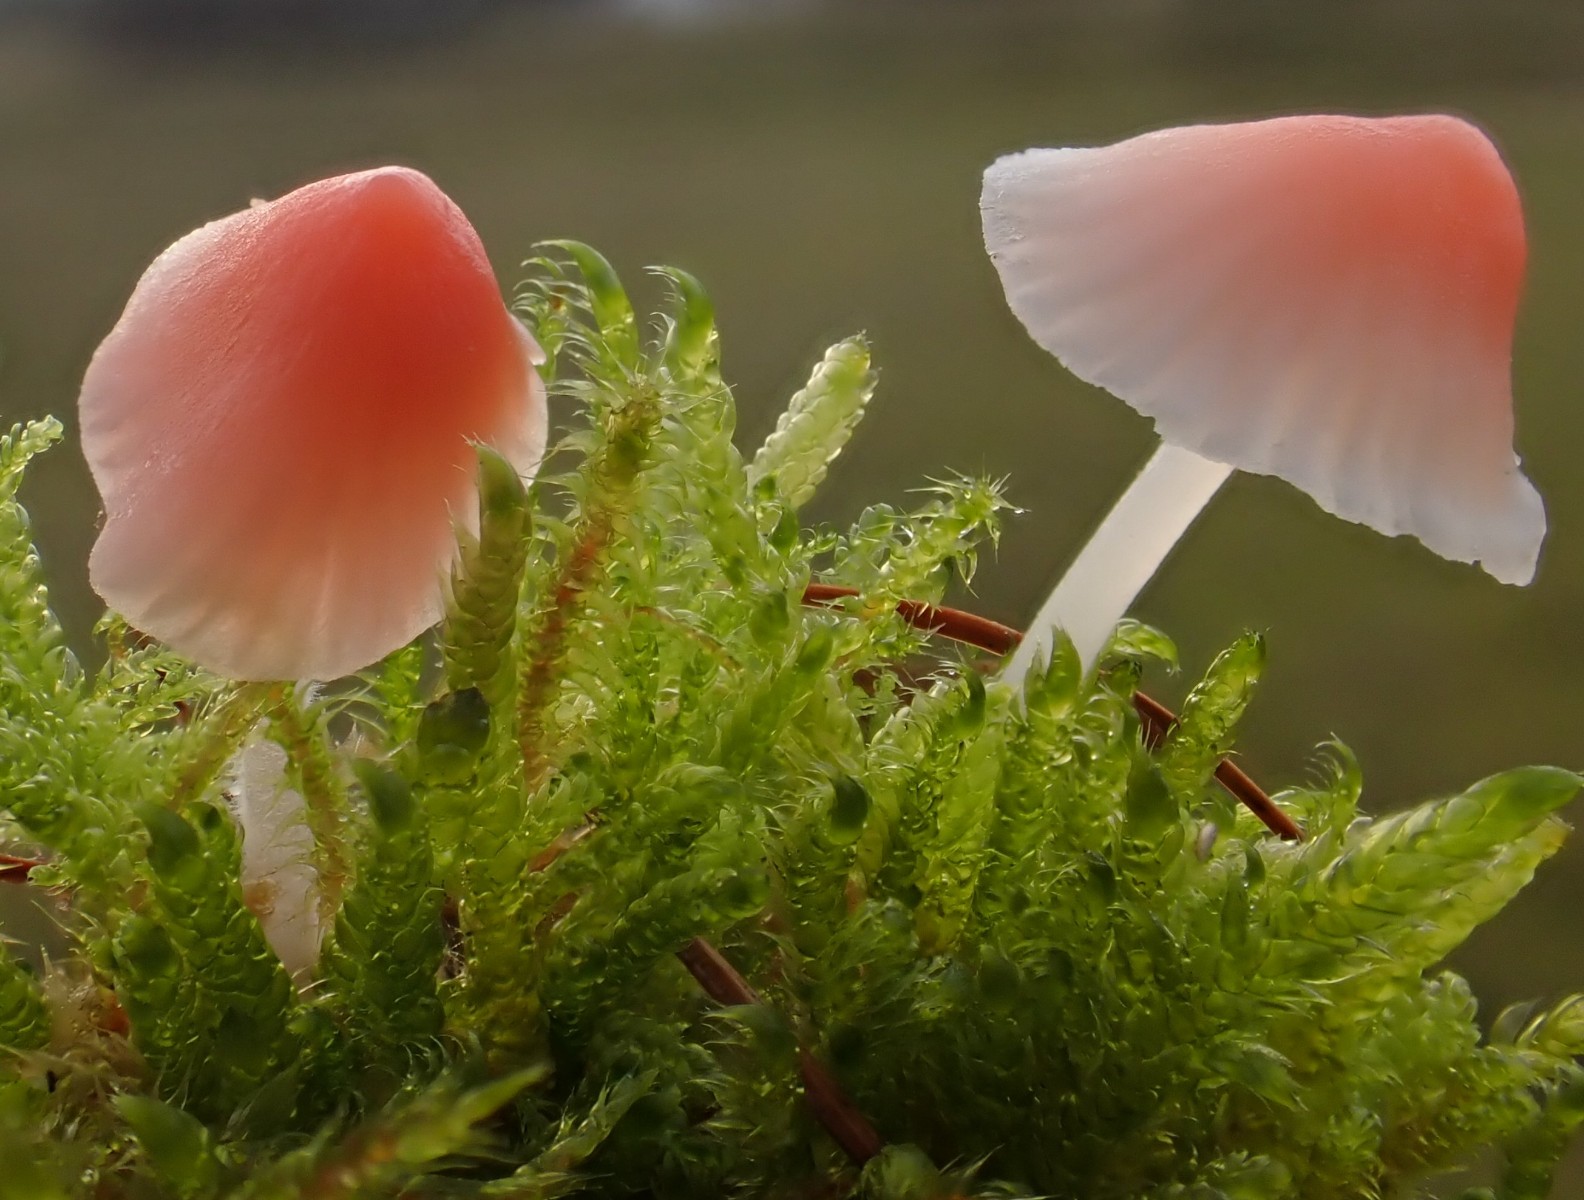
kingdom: Fungi
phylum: Basidiomycota
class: Agaricomycetes
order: Agaricales
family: Mycenaceae
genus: Atheniella
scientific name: Atheniella adonis
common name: rønnerød huesvamp
